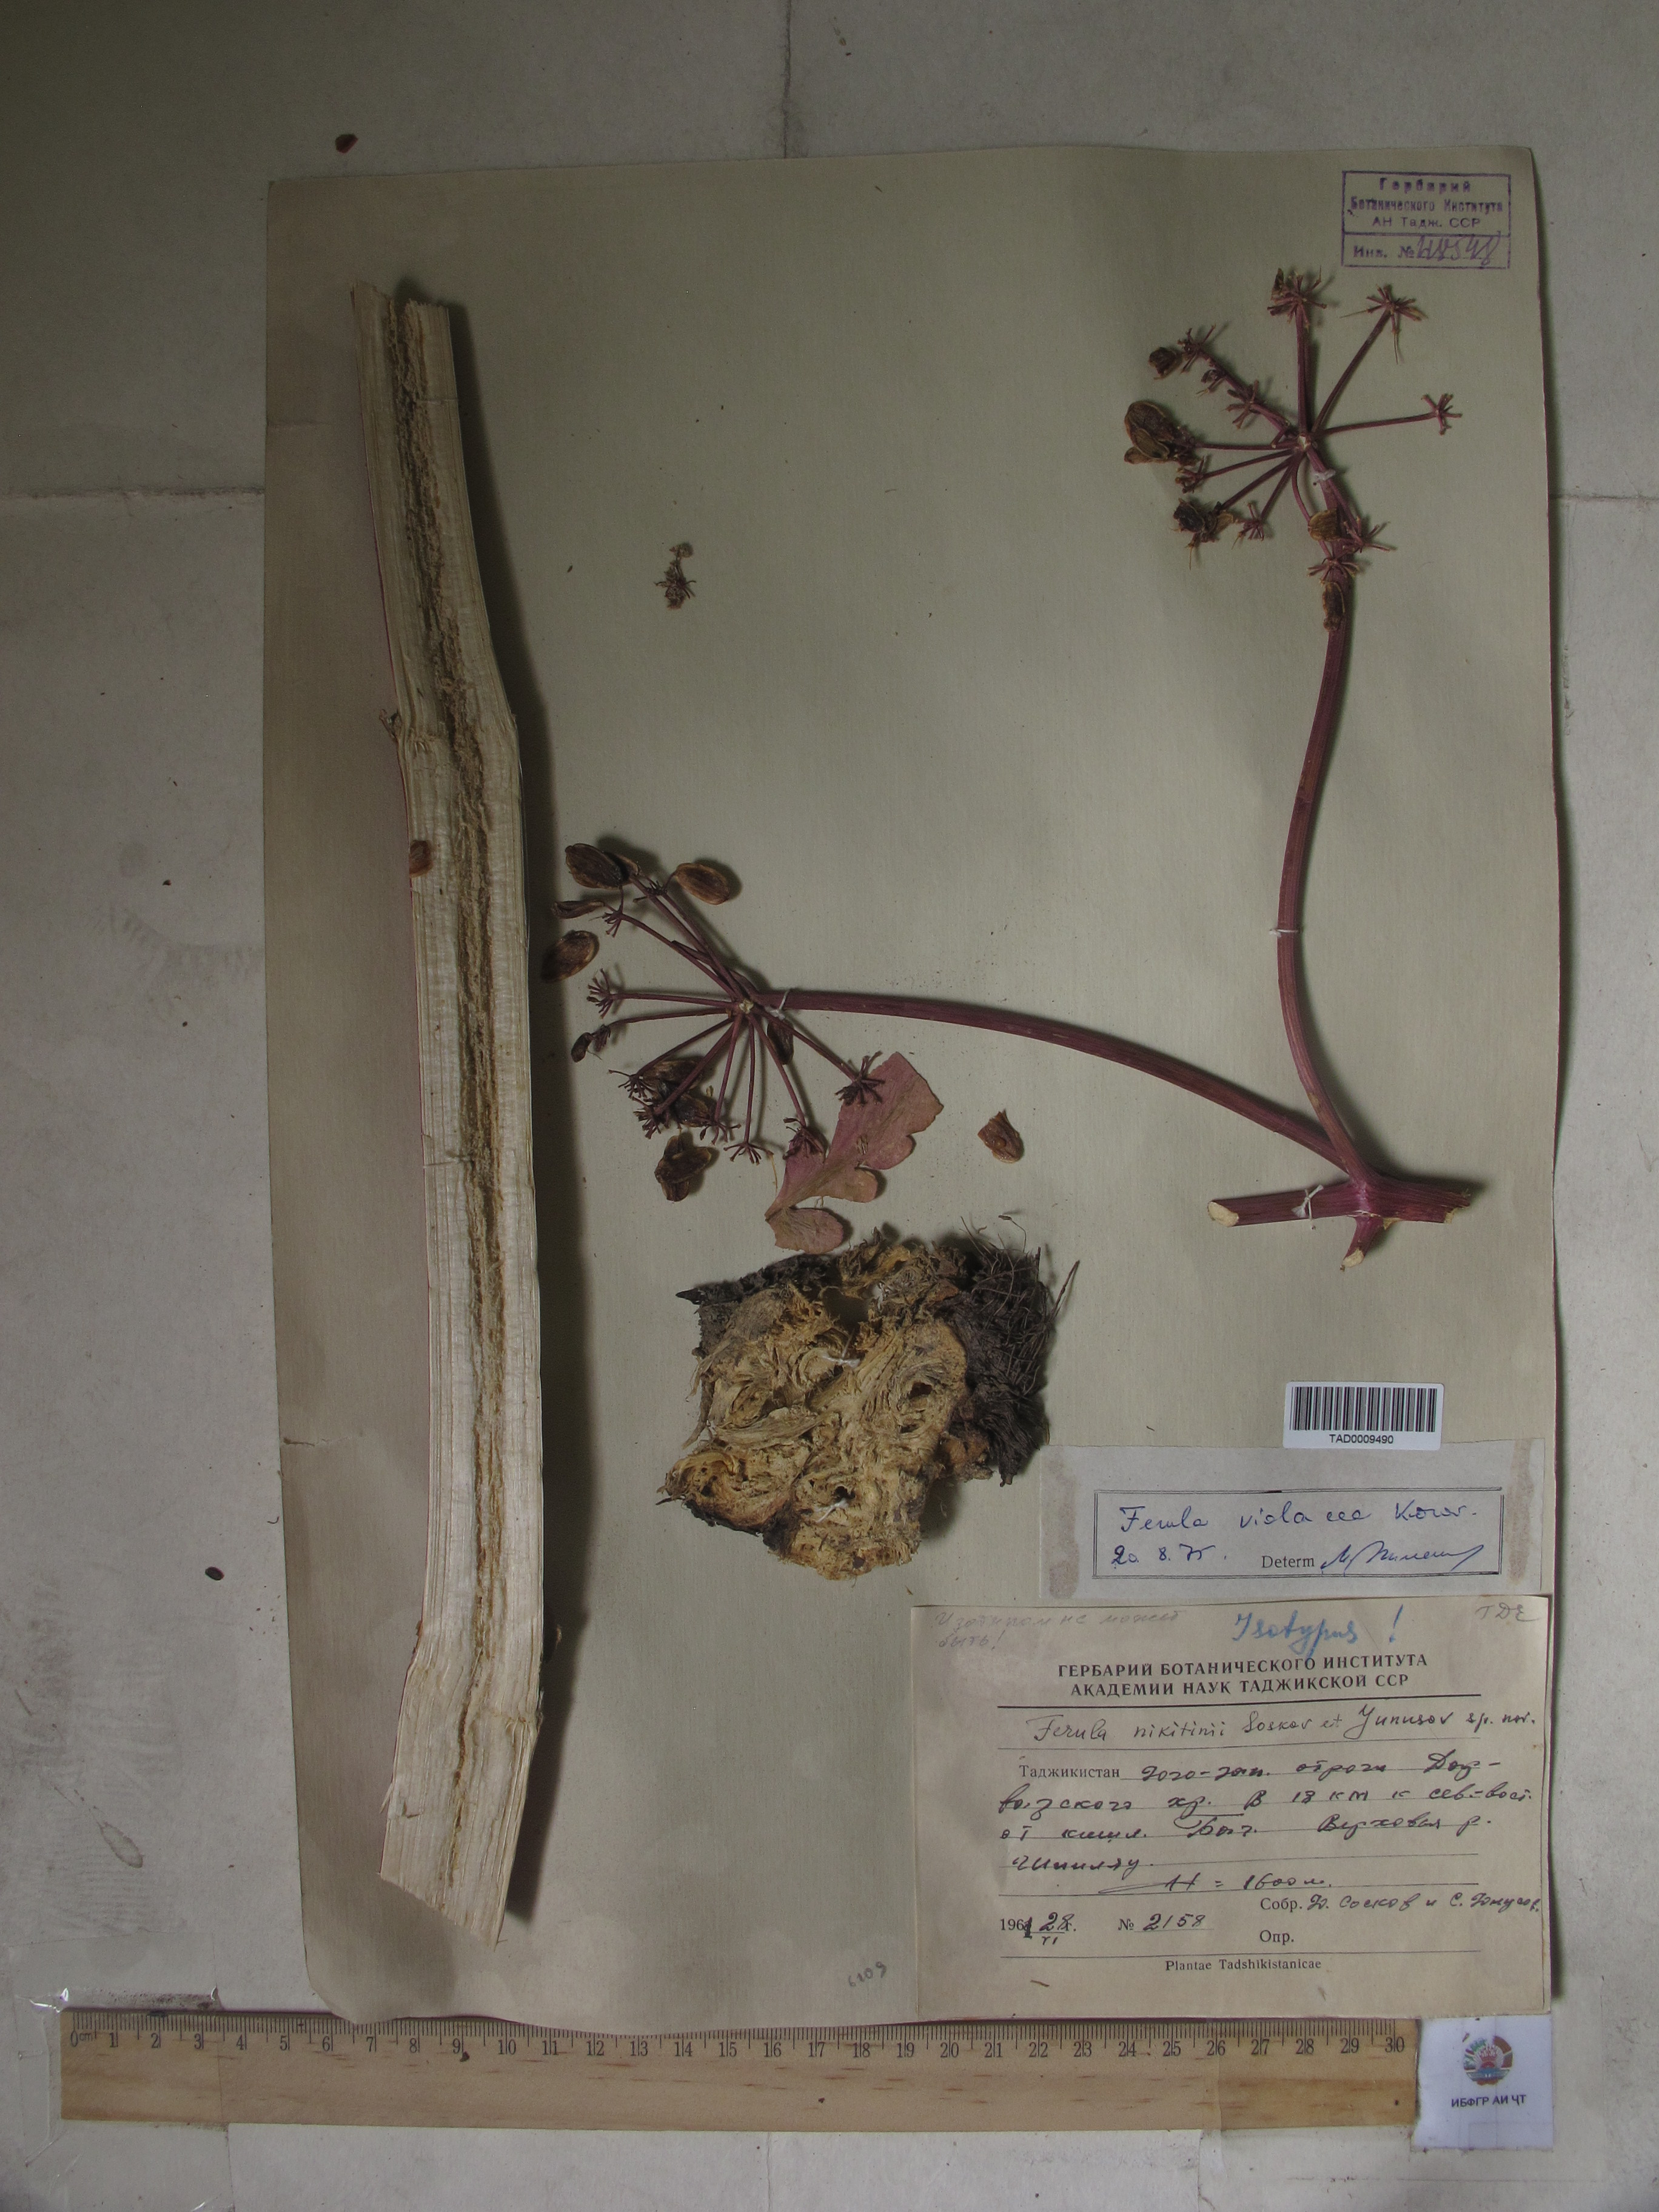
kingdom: Plantae
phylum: Tracheophyta
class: Magnoliopsida
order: Apiales
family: Apiaceae
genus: Ferula
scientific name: Ferula violacea
